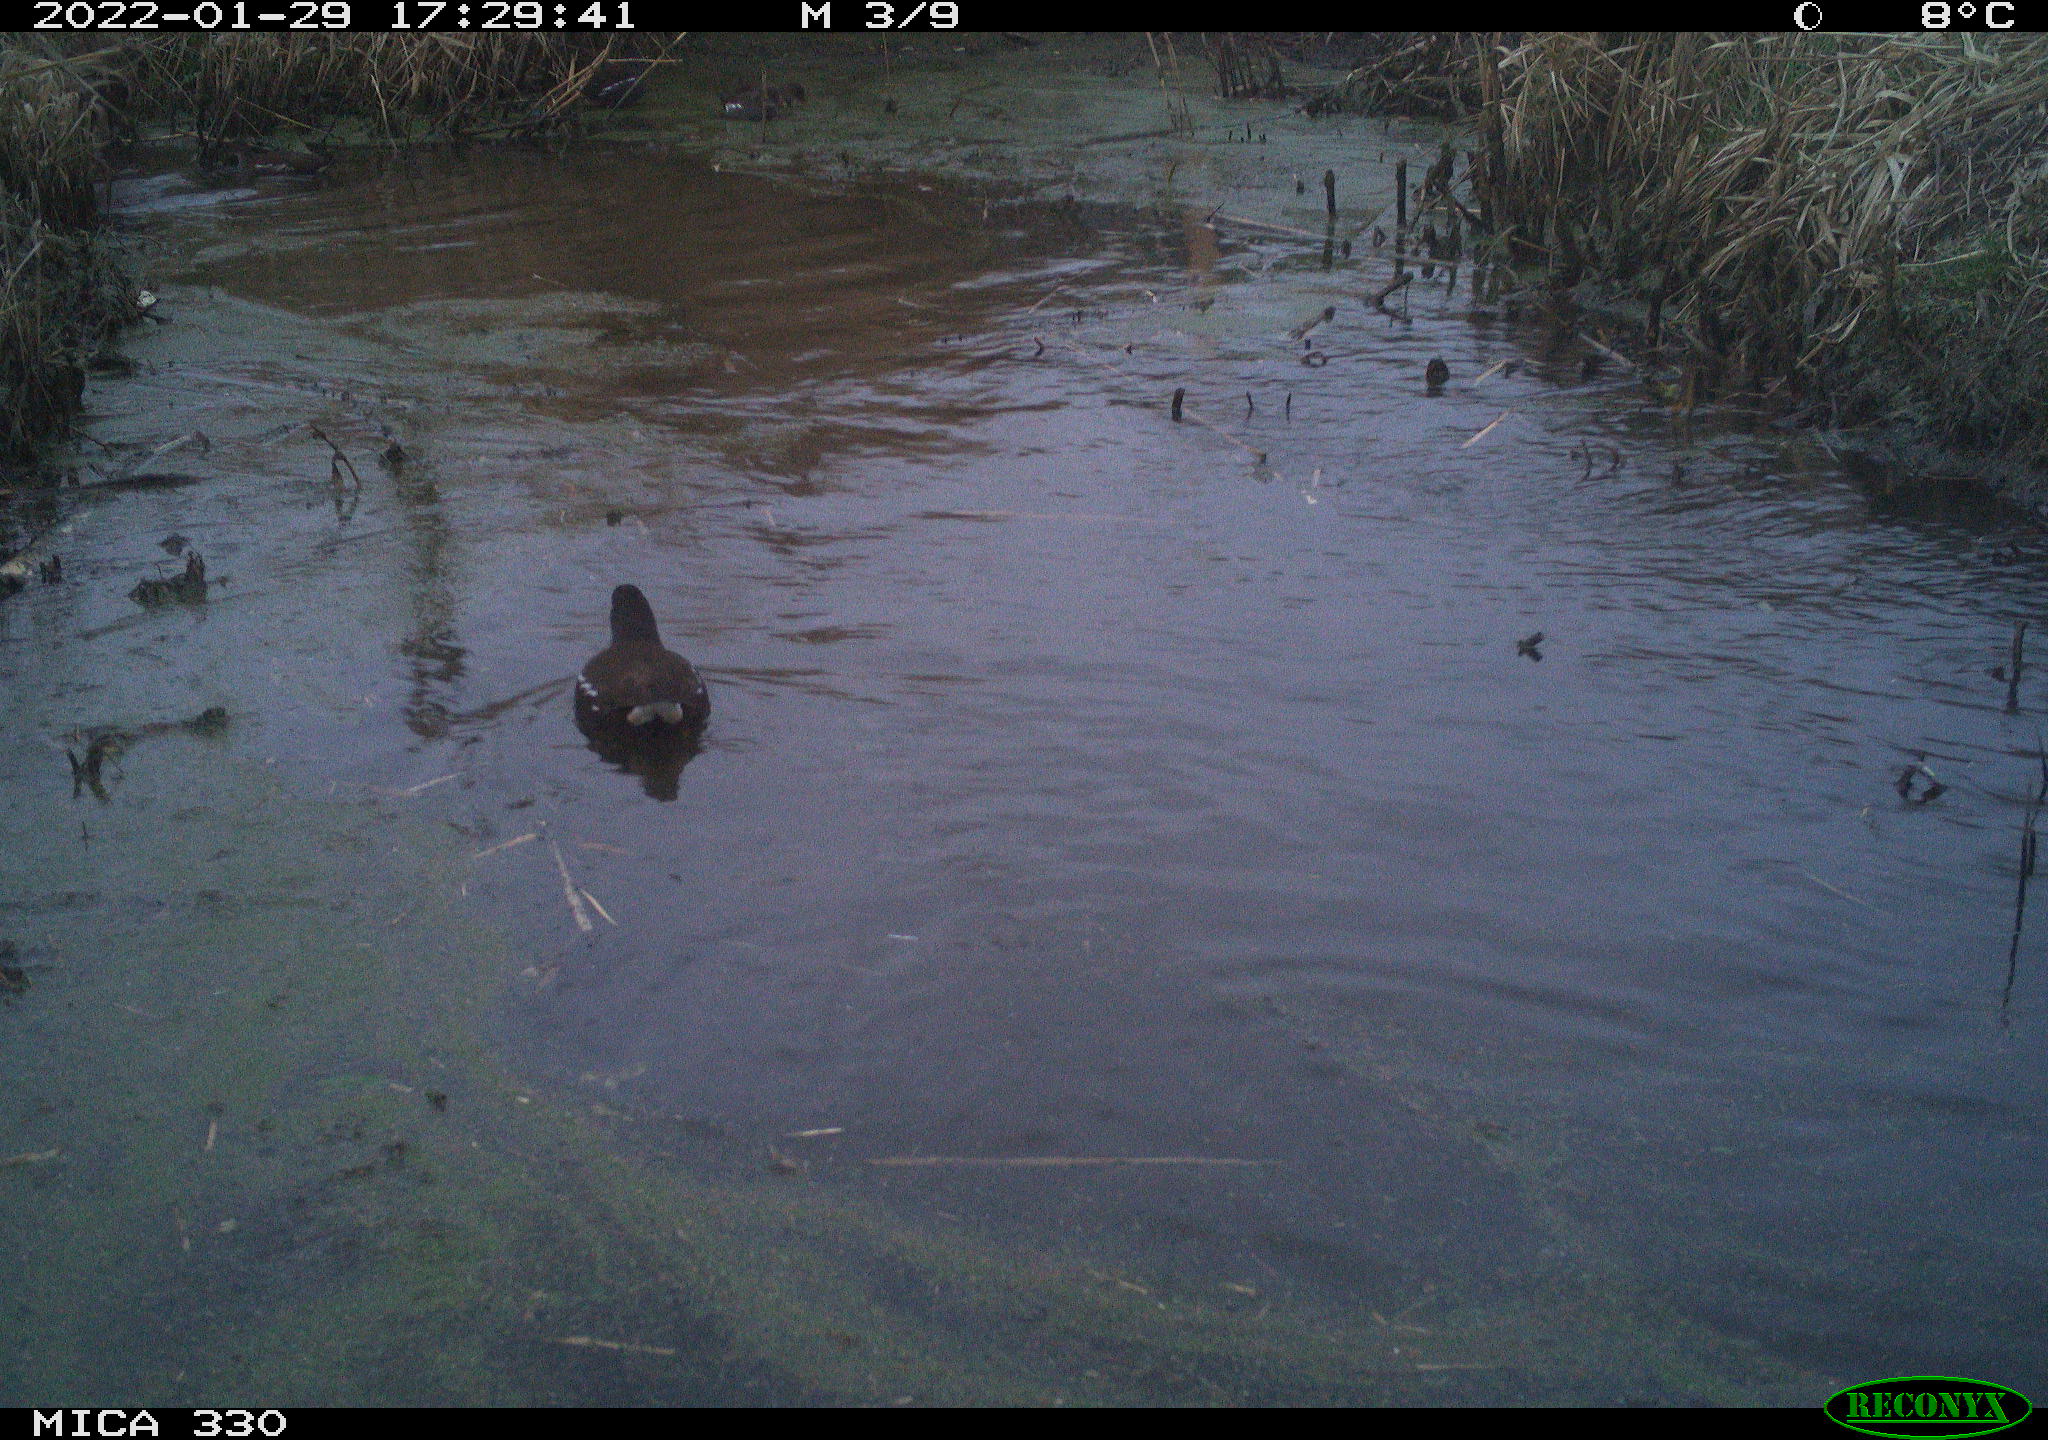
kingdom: Animalia
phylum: Chordata
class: Aves
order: Gruiformes
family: Rallidae
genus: Gallinula
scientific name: Gallinula chloropus
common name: Common moorhen
